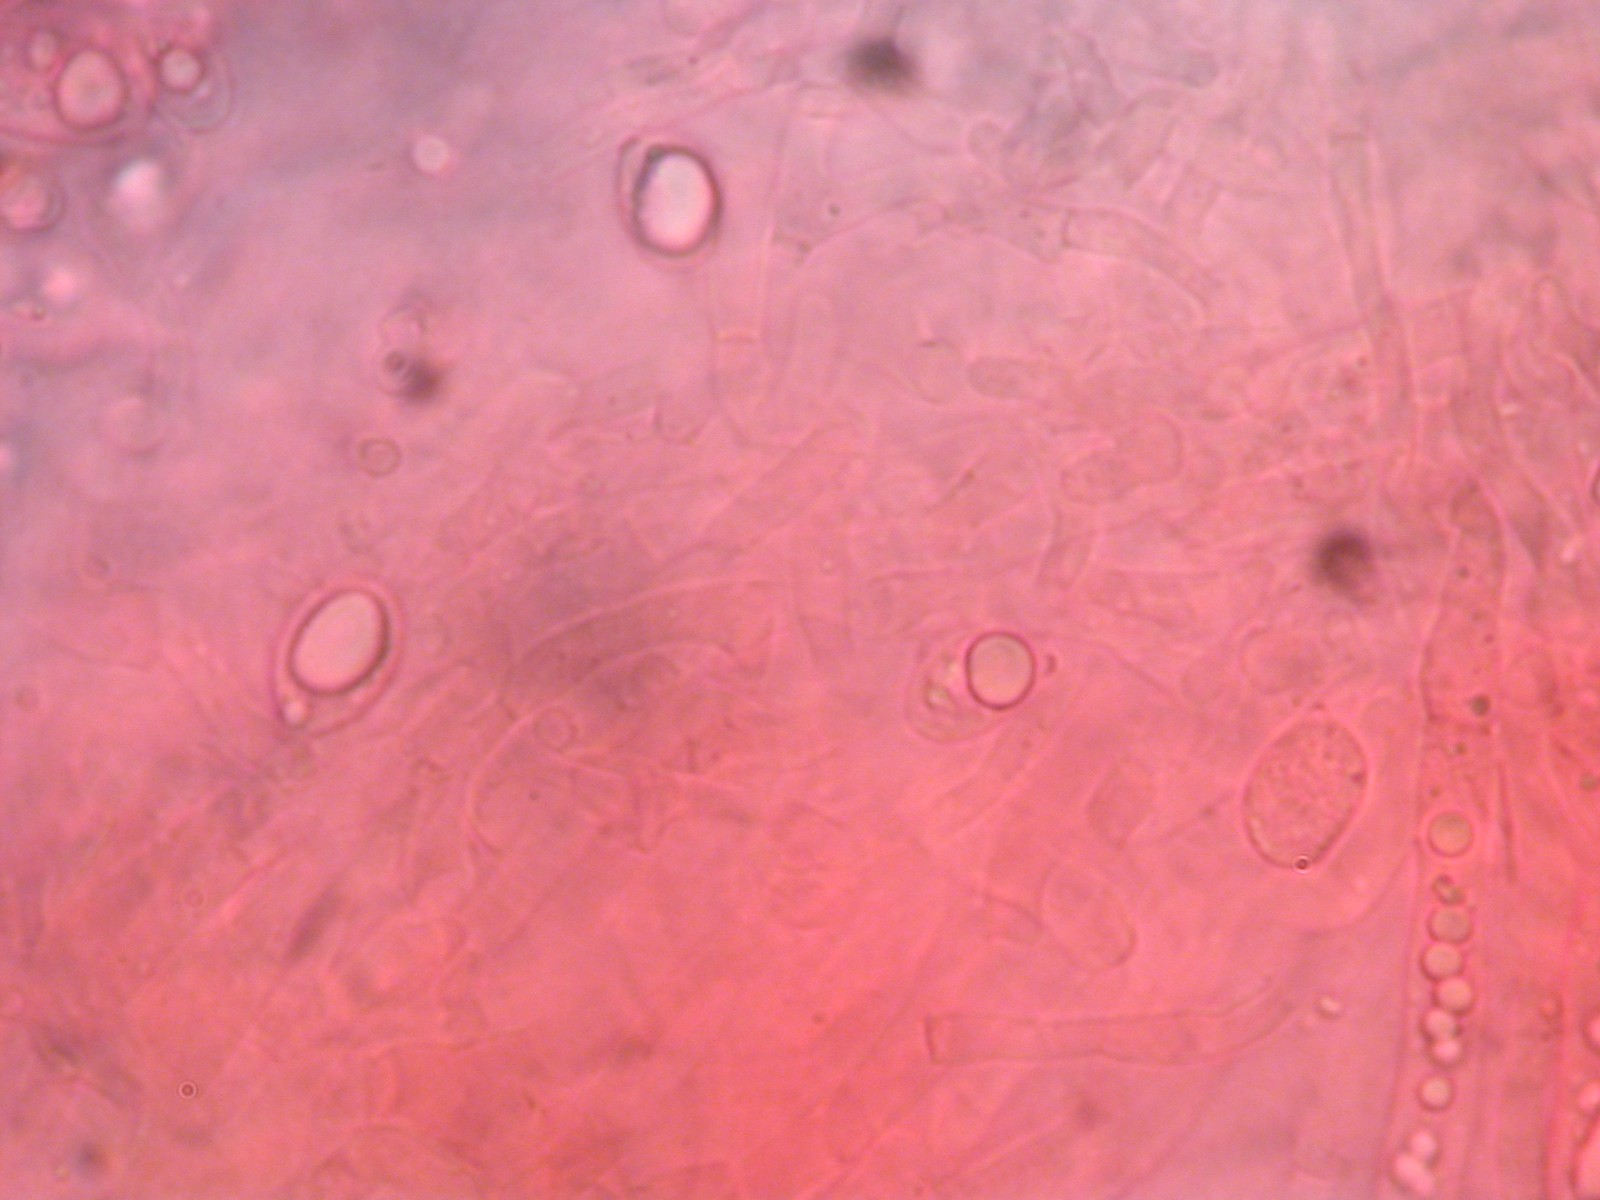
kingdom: Fungi
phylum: Basidiomycota
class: Agaricomycetes
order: Agaricales
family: Hygrophoraceae
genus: Cuphophyllus
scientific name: Cuphophyllus virgineus
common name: isabella-vokshat
